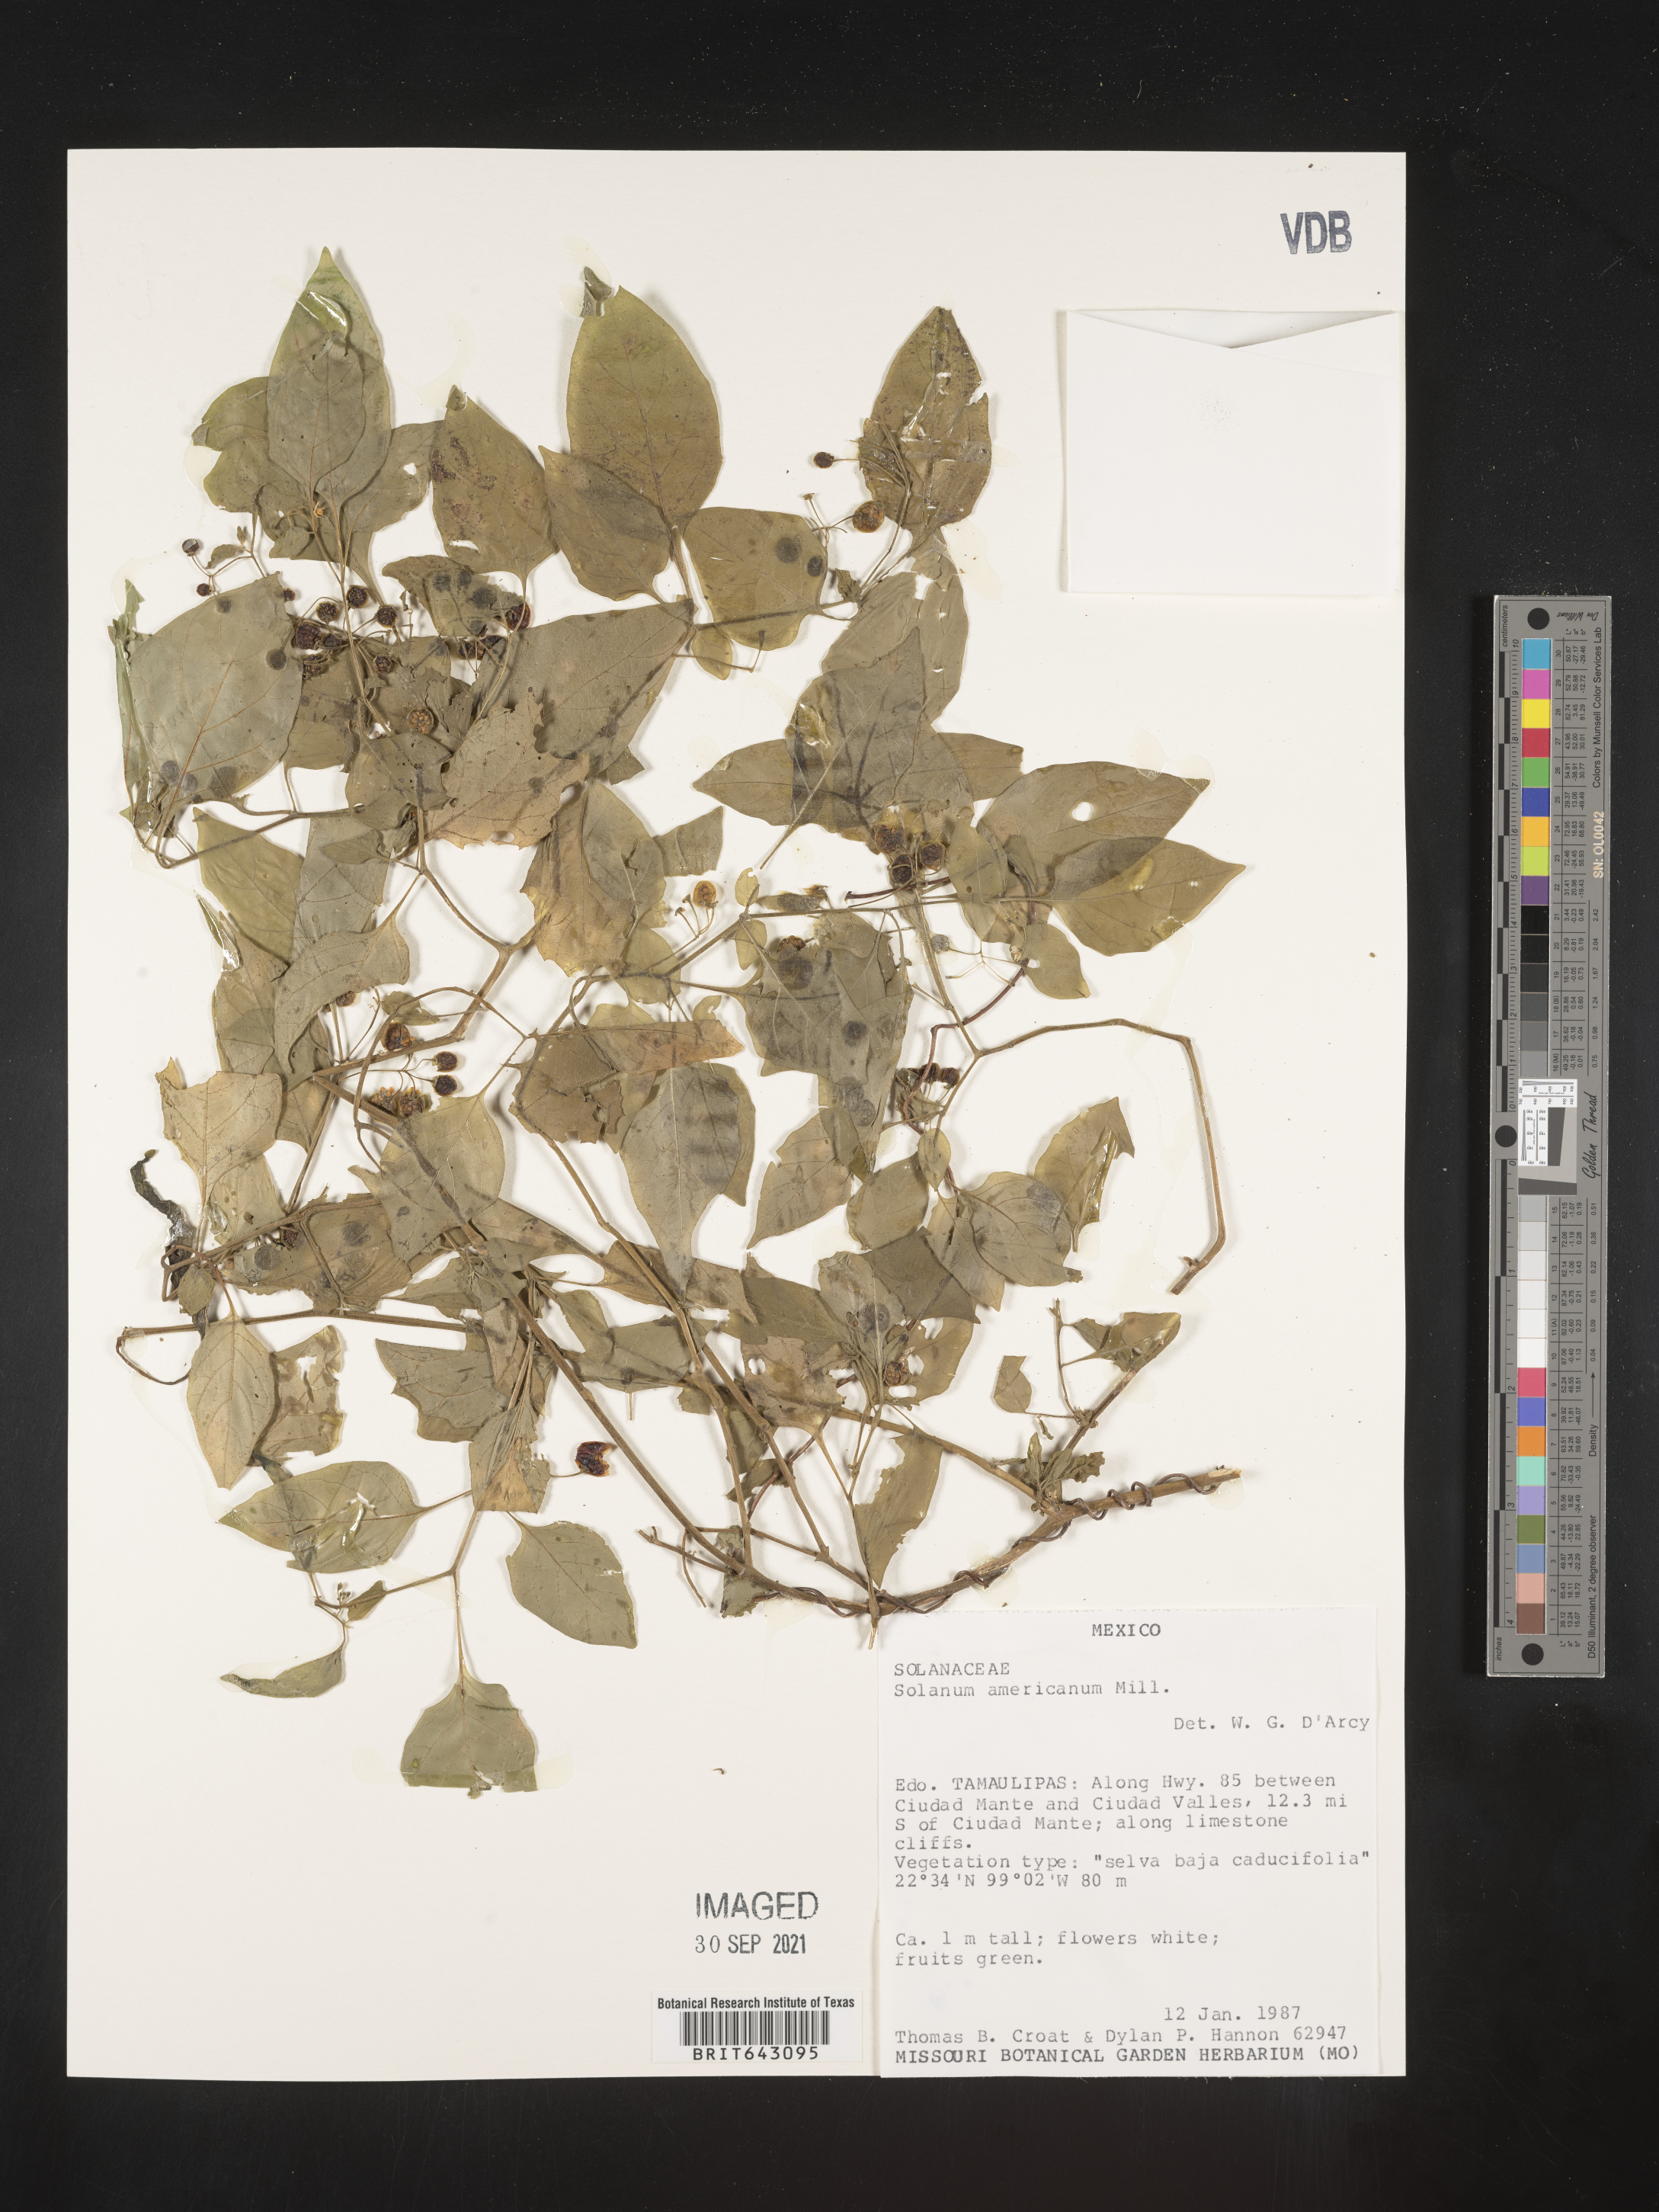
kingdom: Plantae
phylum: Tracheophyta
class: Magnoliopsida
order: Solanales
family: Solanaceae
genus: Solanum
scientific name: Solanum
